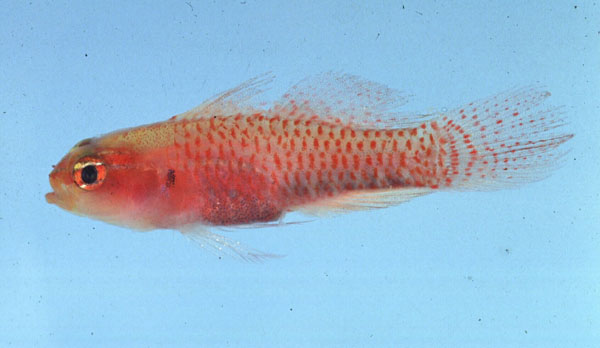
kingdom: Animalia
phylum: Chordata
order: Perciformes
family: Gobiidae
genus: Eviota
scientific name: Eviota prasites
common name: Hairfin eviota
